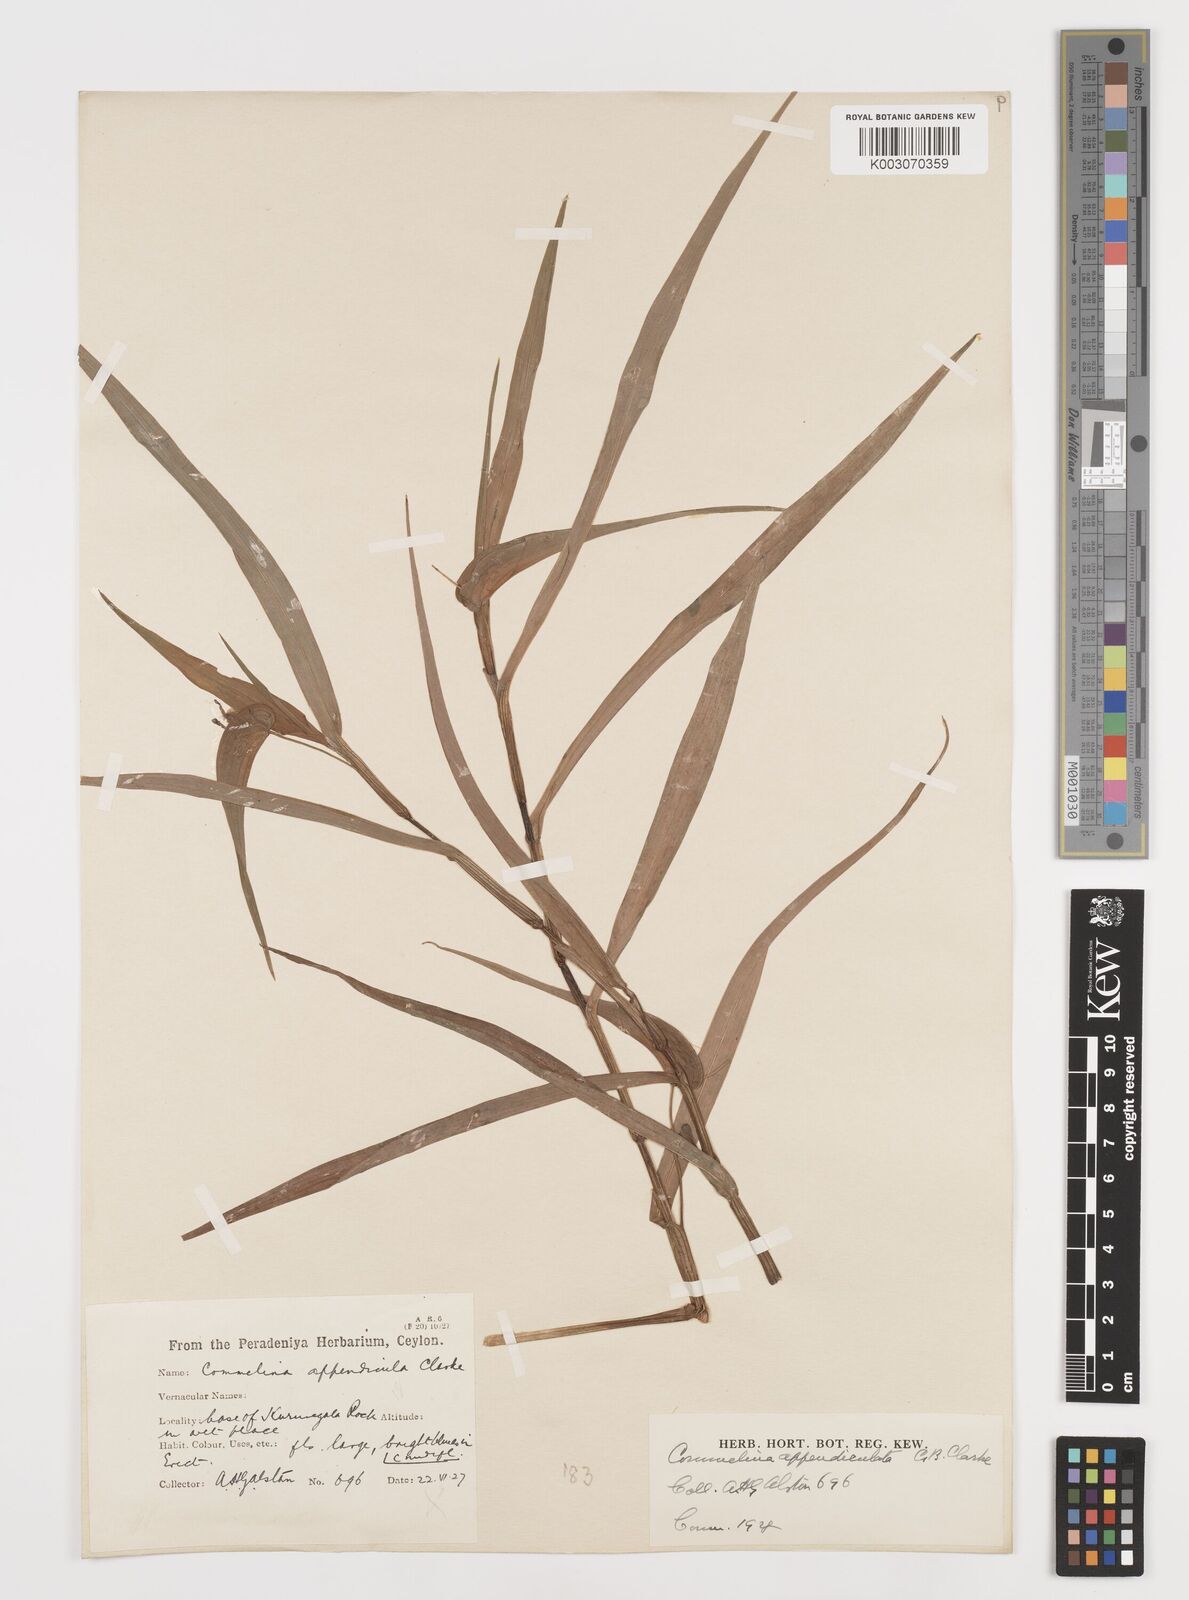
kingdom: Plantae
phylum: Tracheophyta
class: Liliopsida
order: Commelinales
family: Commelinaceae
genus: Commelina
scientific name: Commelina appendiculata
